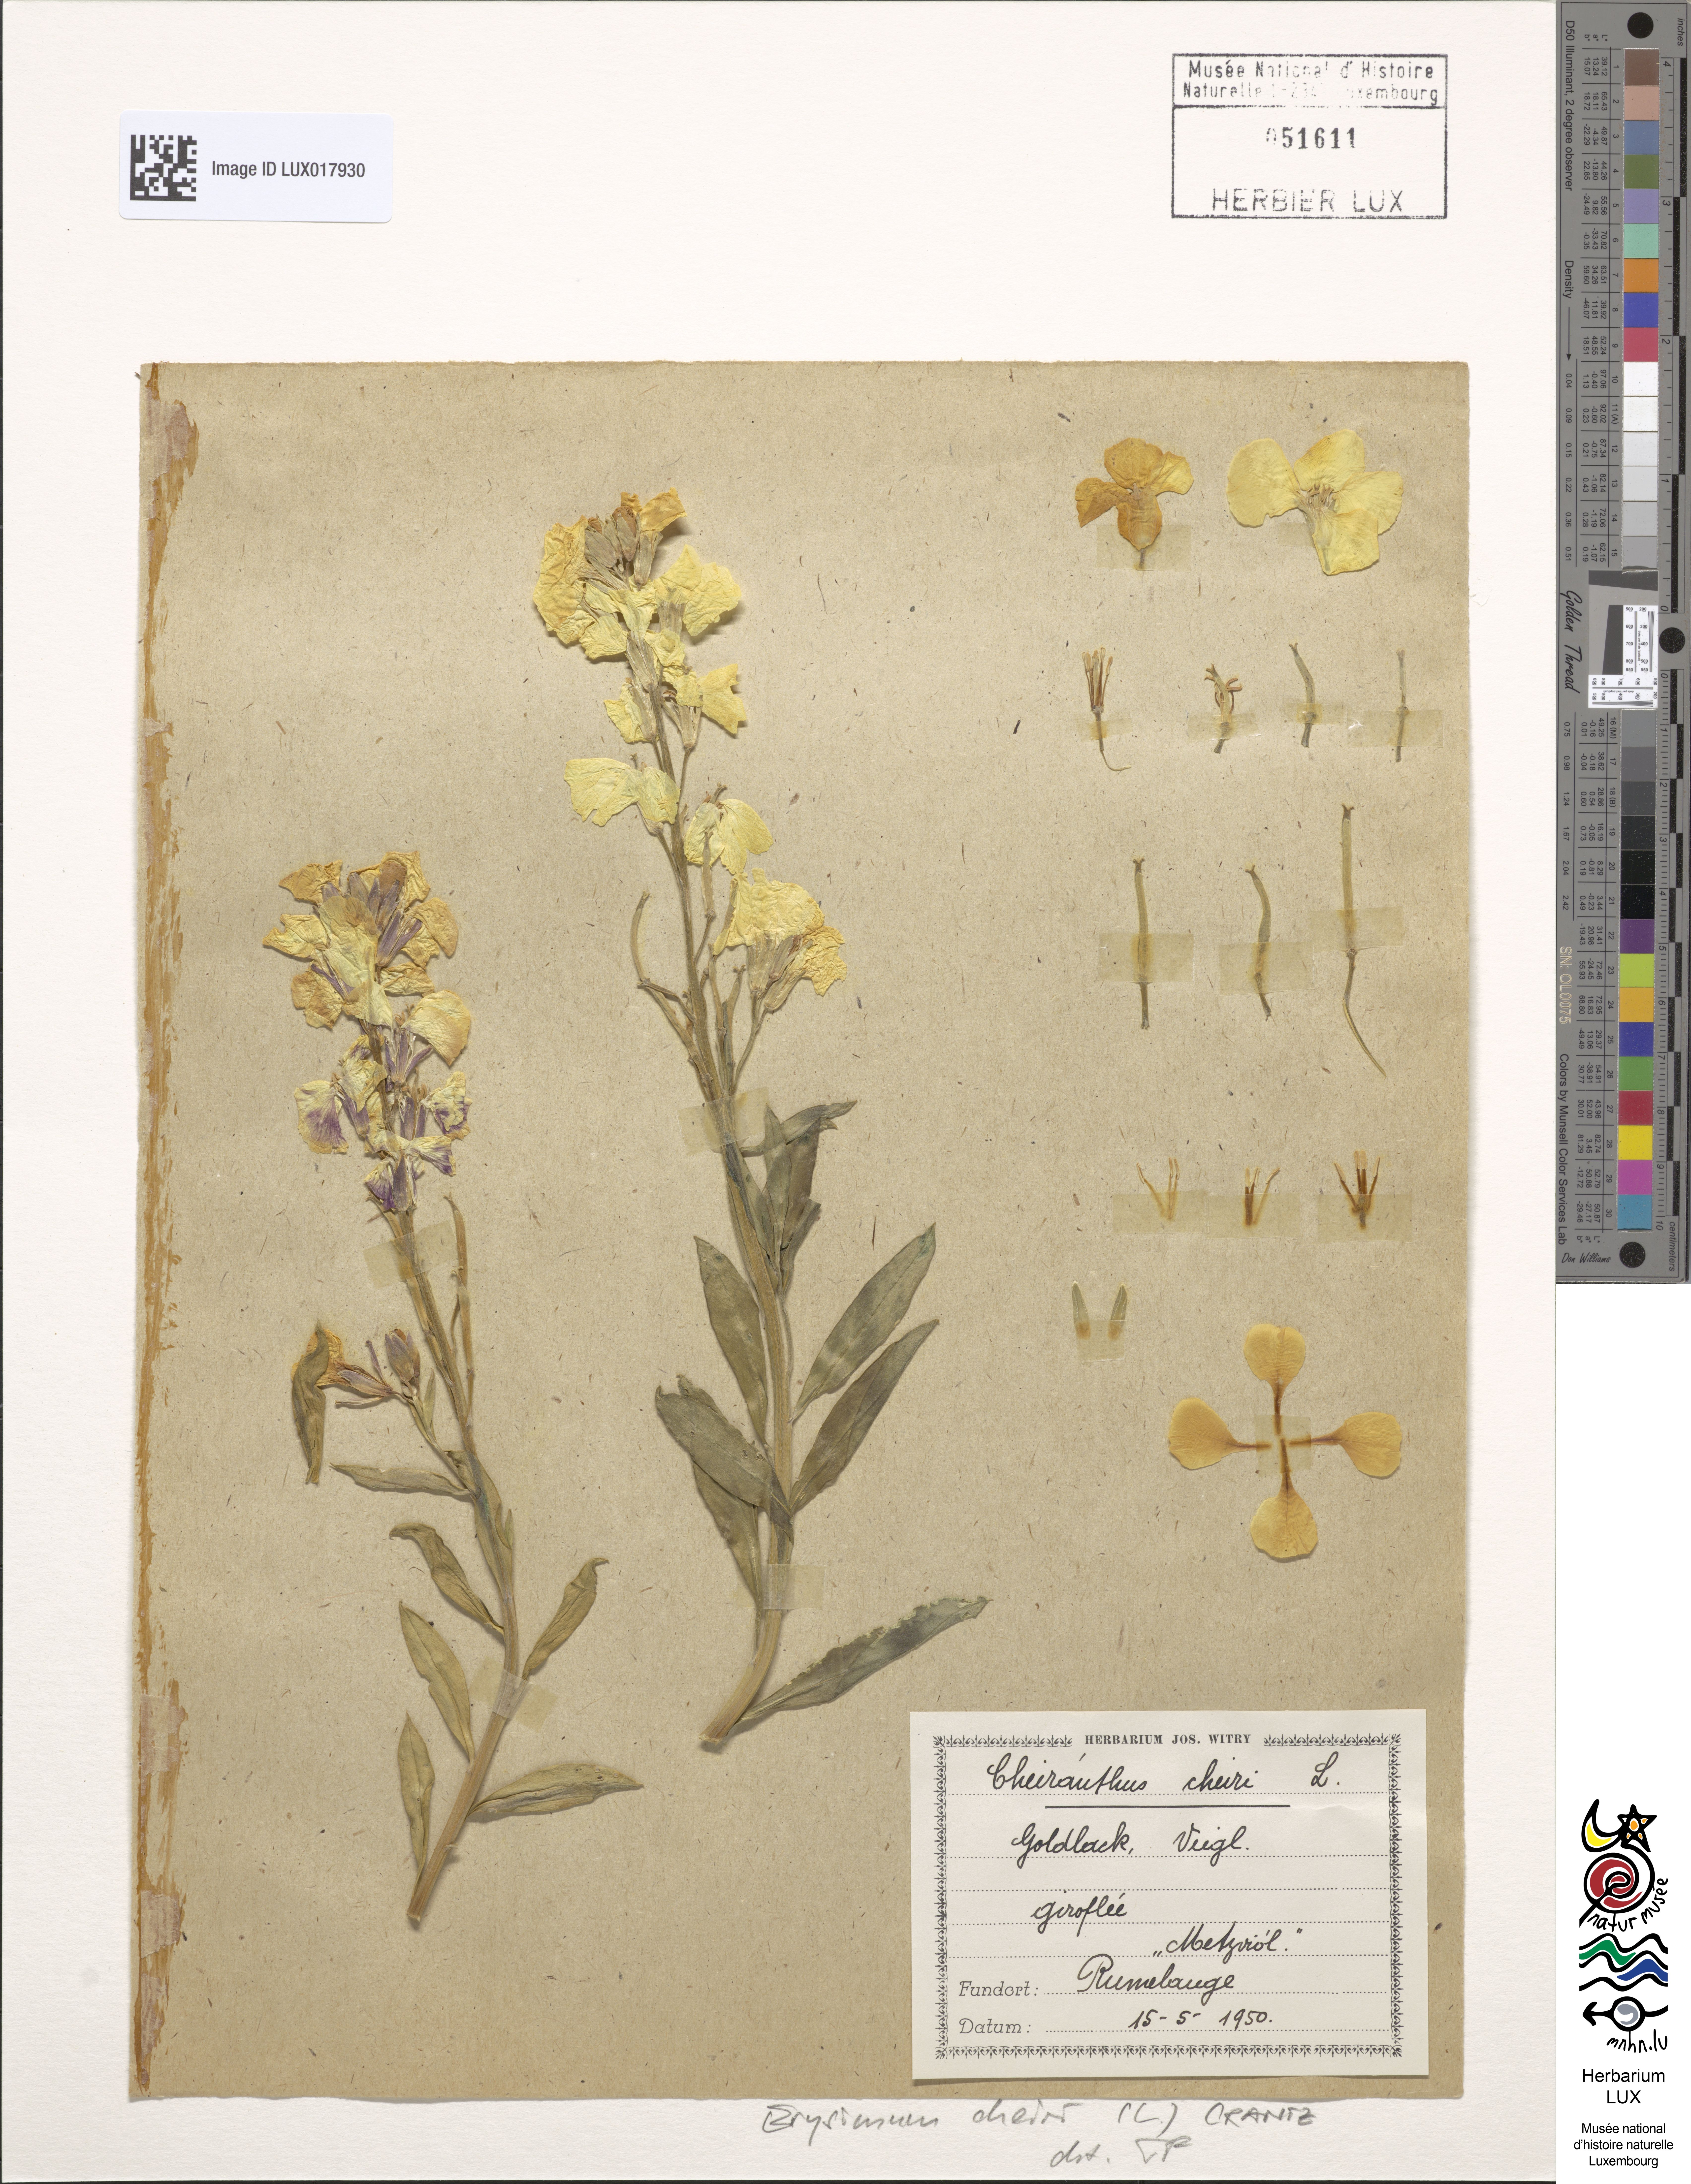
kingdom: Plantae
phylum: Tracheophyta
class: Magnoliopsida
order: Brassicales
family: Brassicaceae
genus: Erysimum
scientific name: Erysimum cheiri
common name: Wallflower
